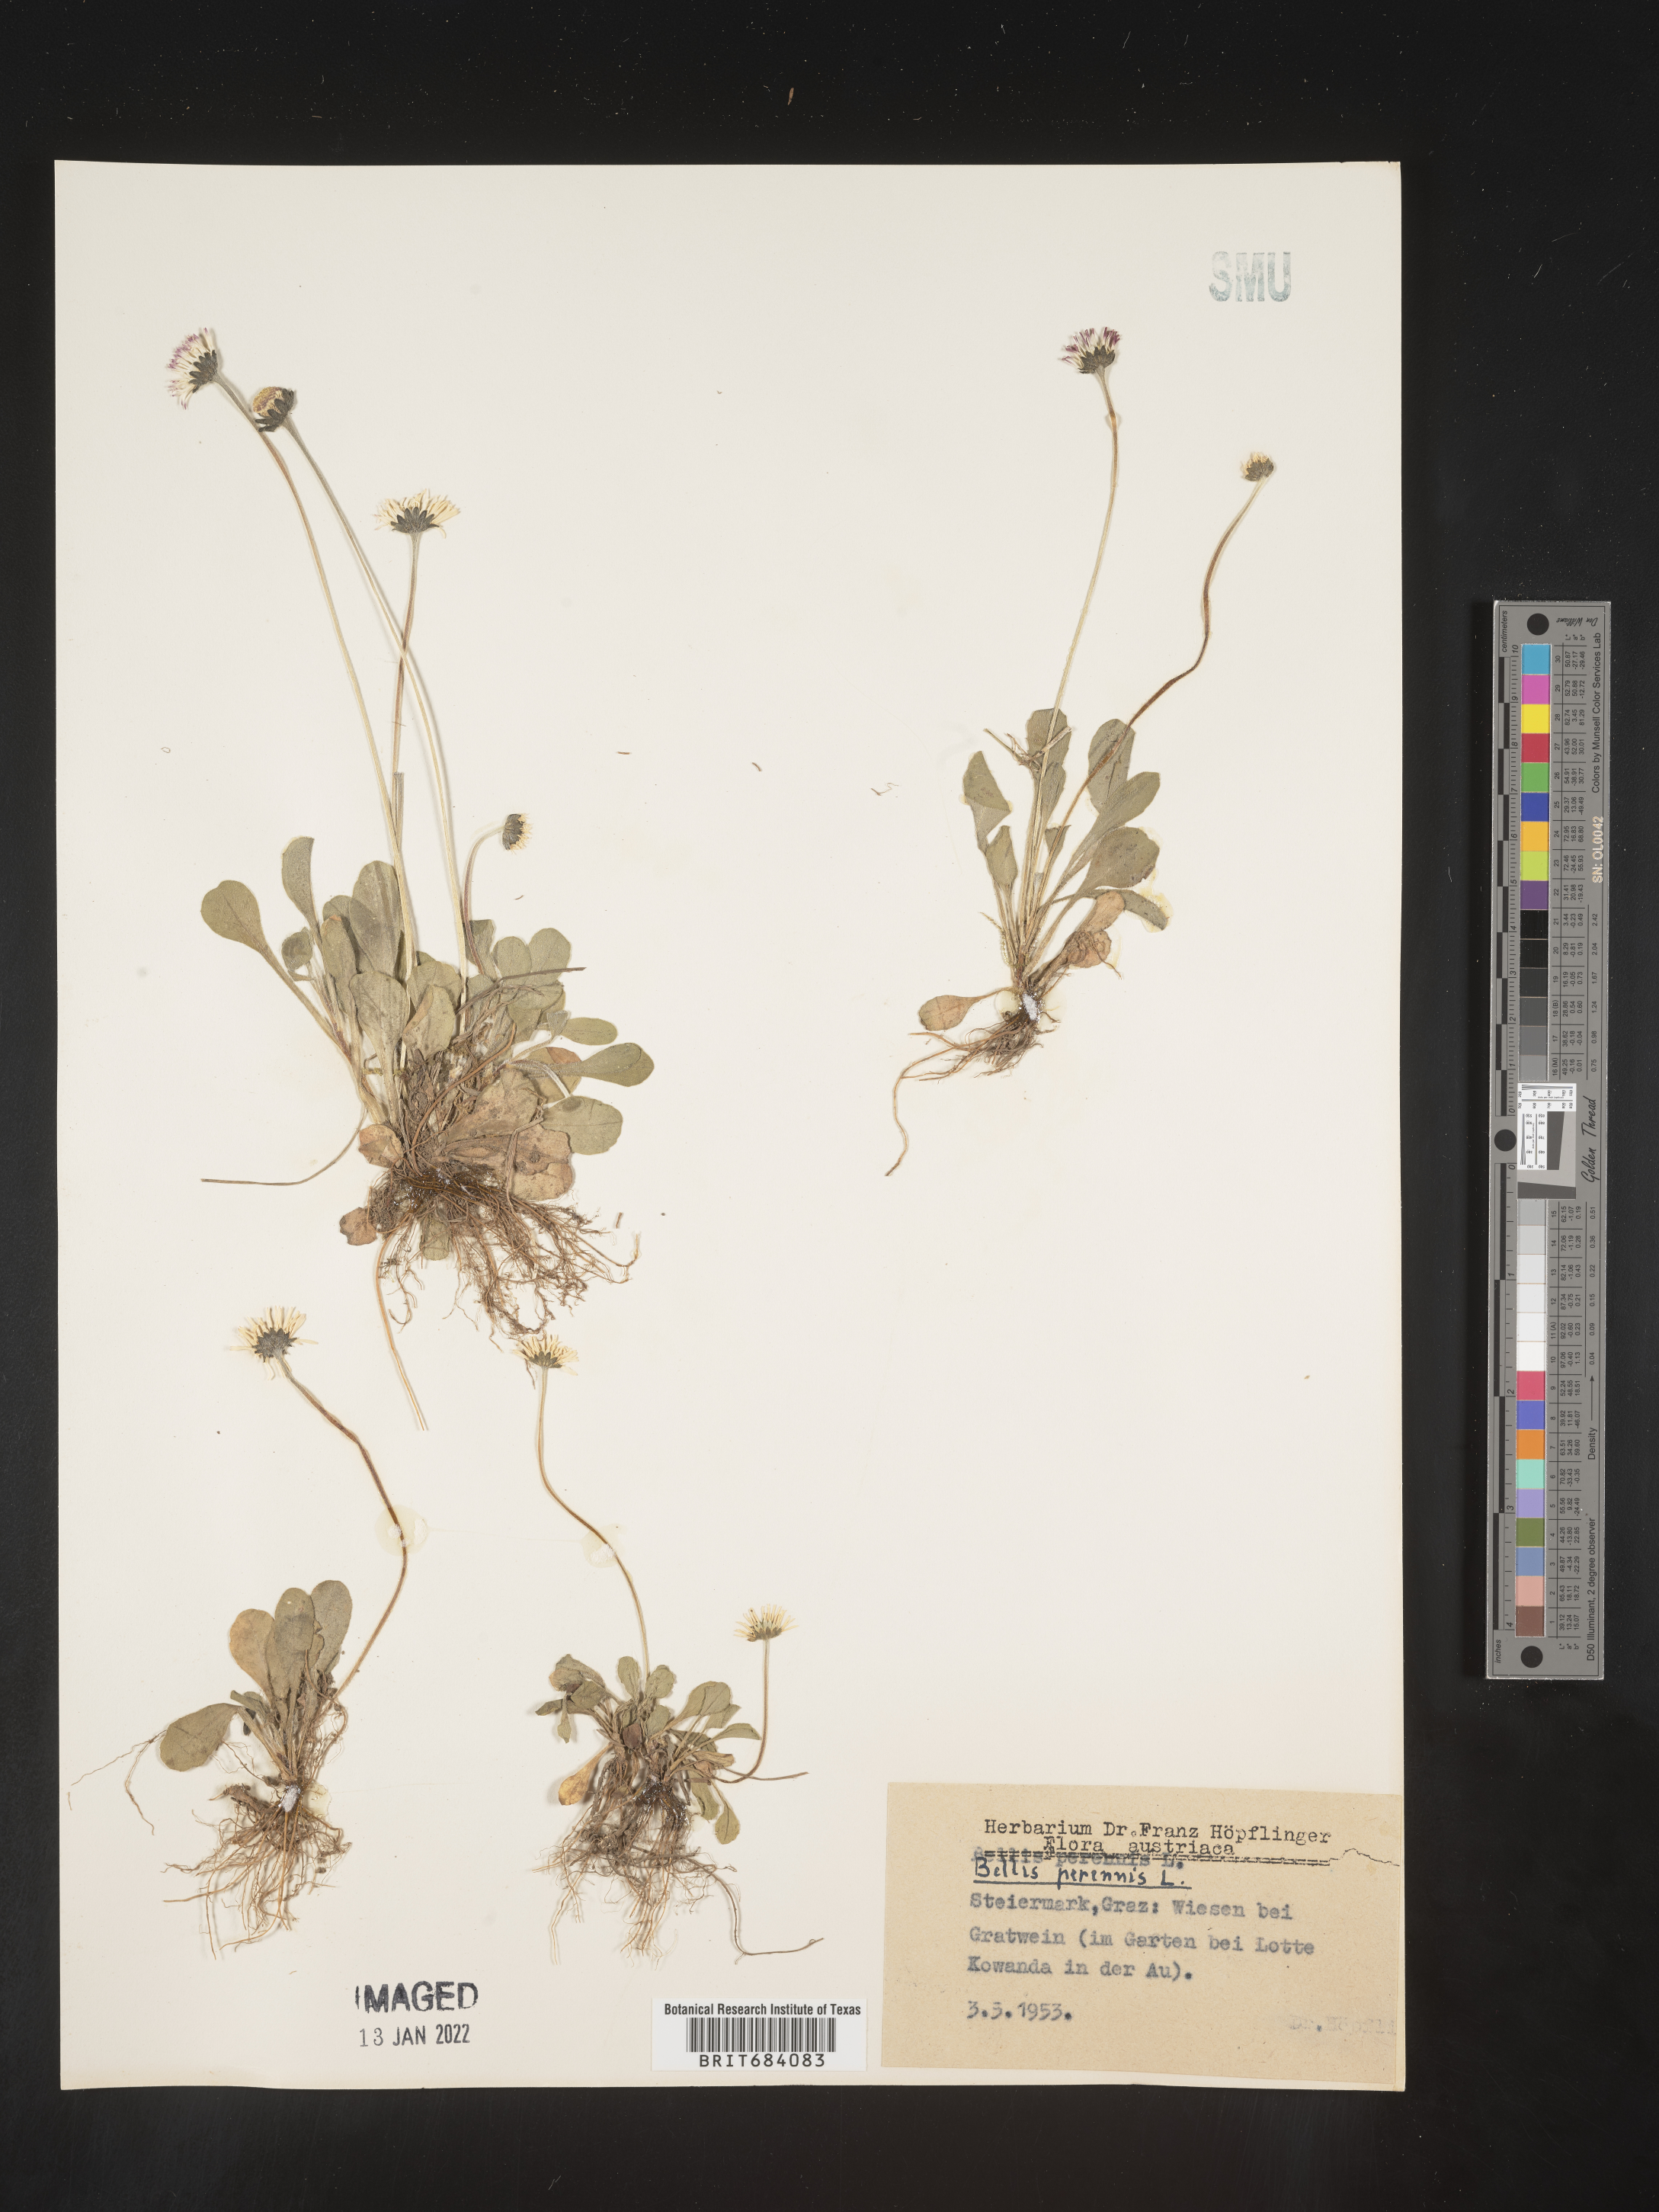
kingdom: Plantae
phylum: Tracheophyta
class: Magnoliopsida
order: Asterales
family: Asteraceae
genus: Bellis
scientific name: Bellis
